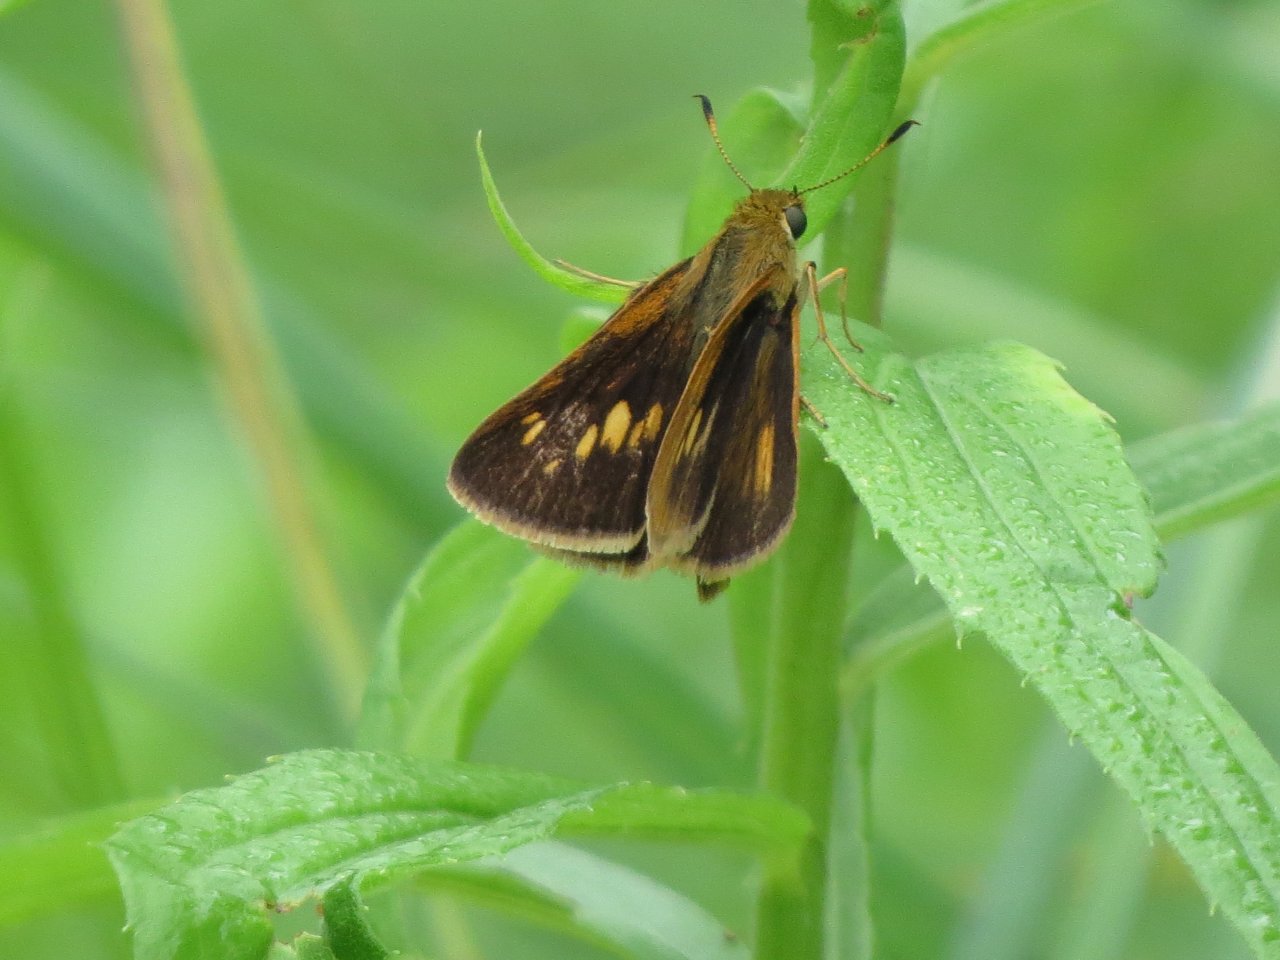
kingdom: Animalia
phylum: Arthropoda
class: Insecta
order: Lepidoptera
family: Hesperiidae
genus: Euphyes
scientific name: Euphyes dion
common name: Dion Skipper
